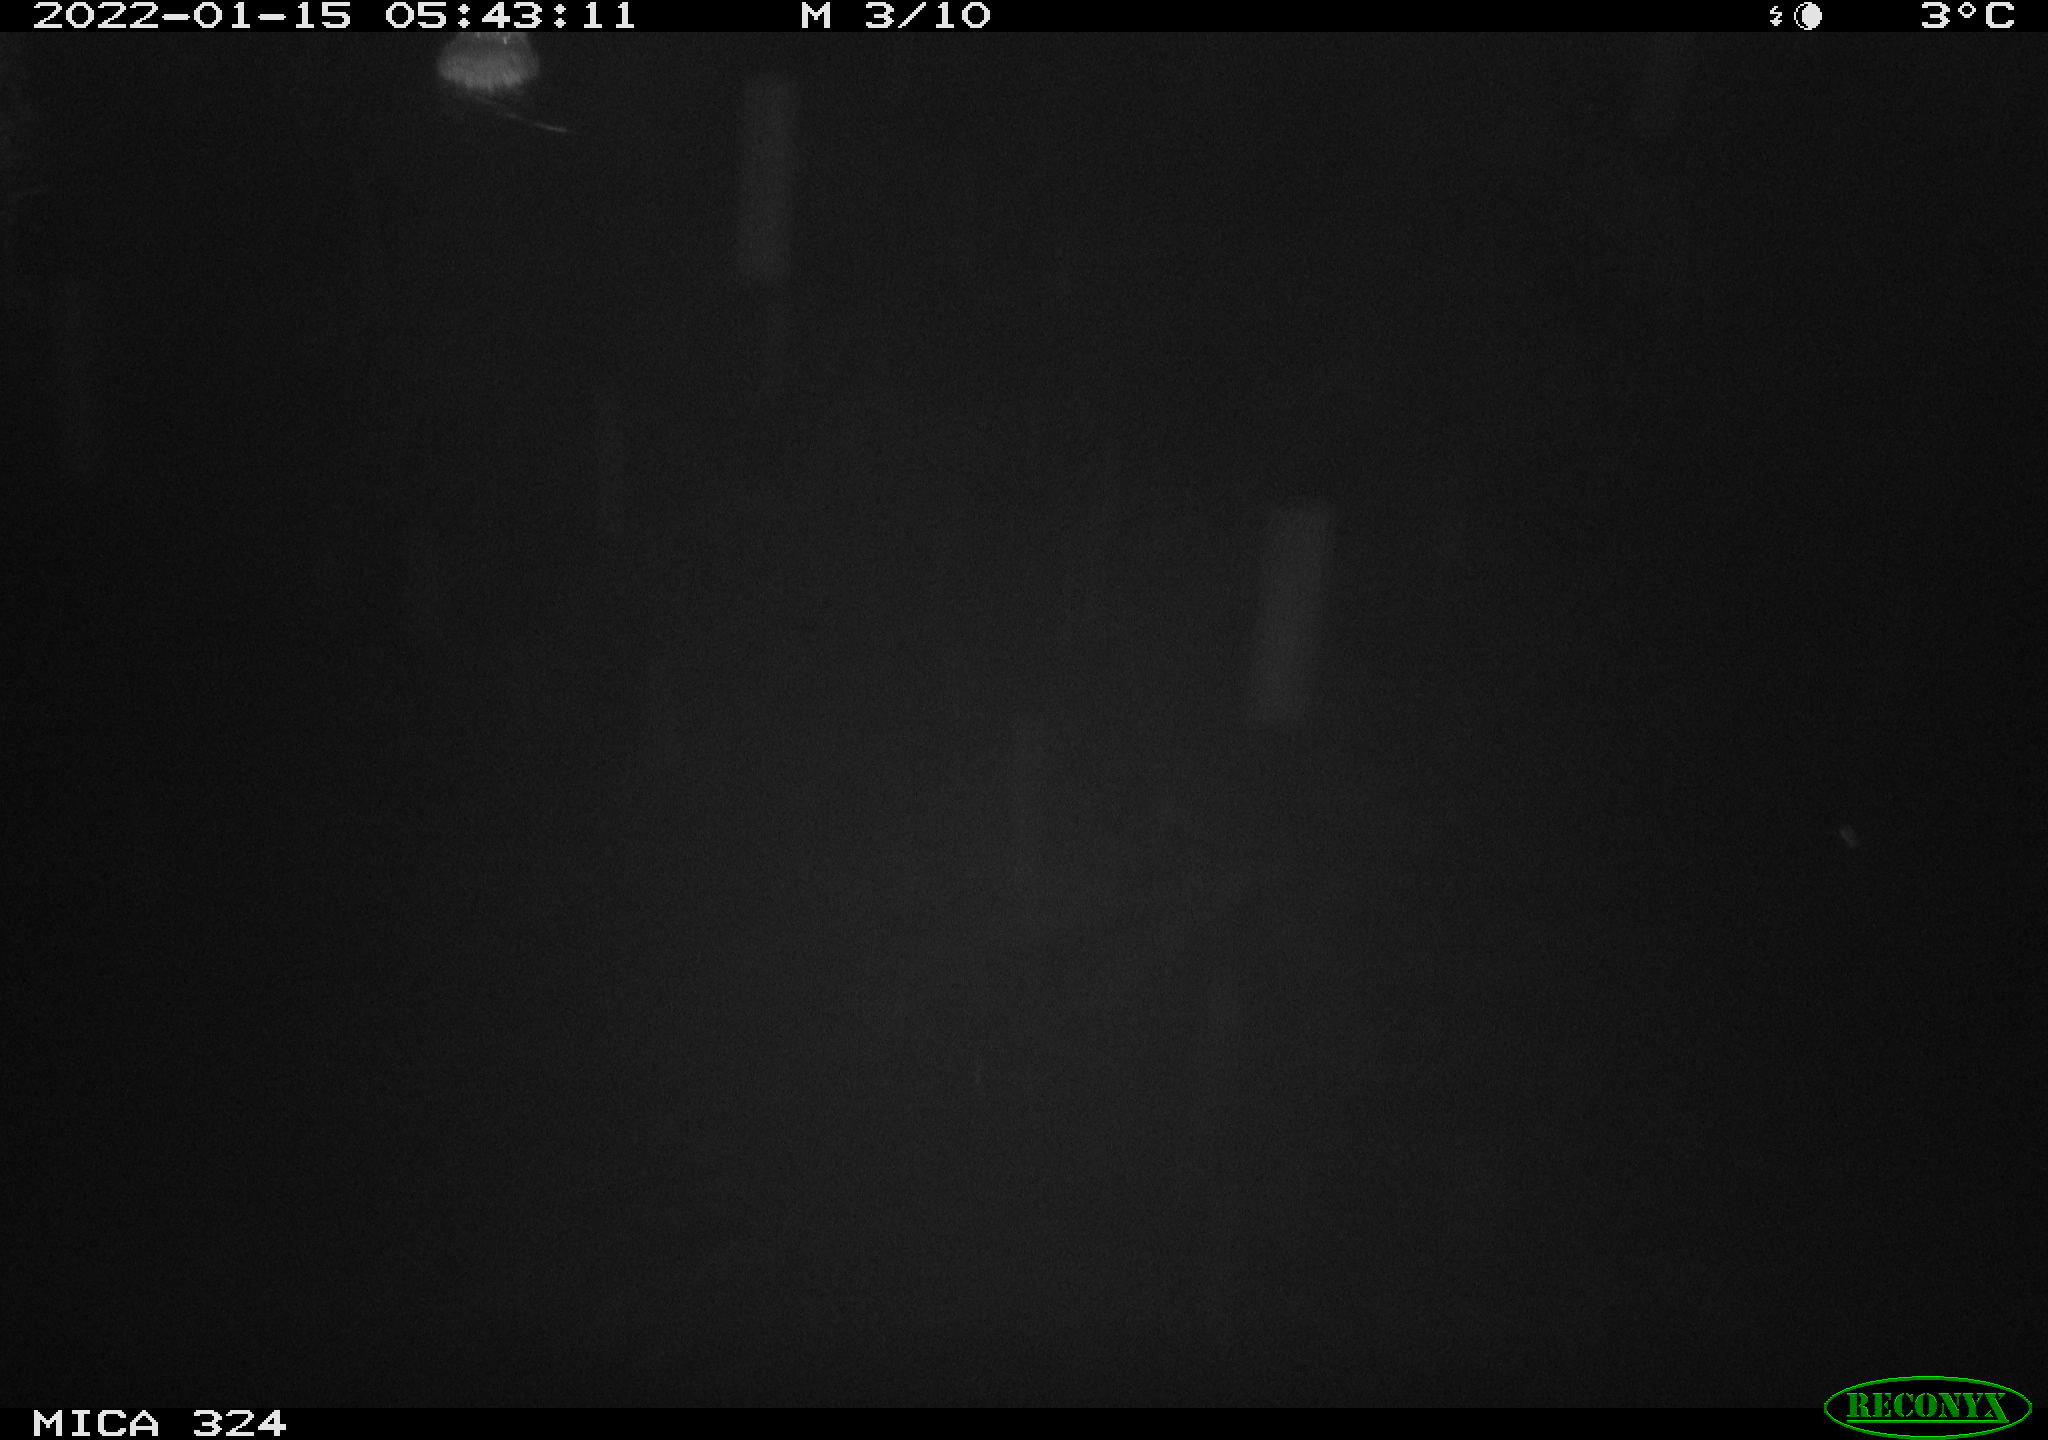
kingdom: Animalia
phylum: Chordata
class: Mammalia
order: Rodentia
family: Cricetidae
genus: Ondatra
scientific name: Ondatra zibethicus
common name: Muskrat
